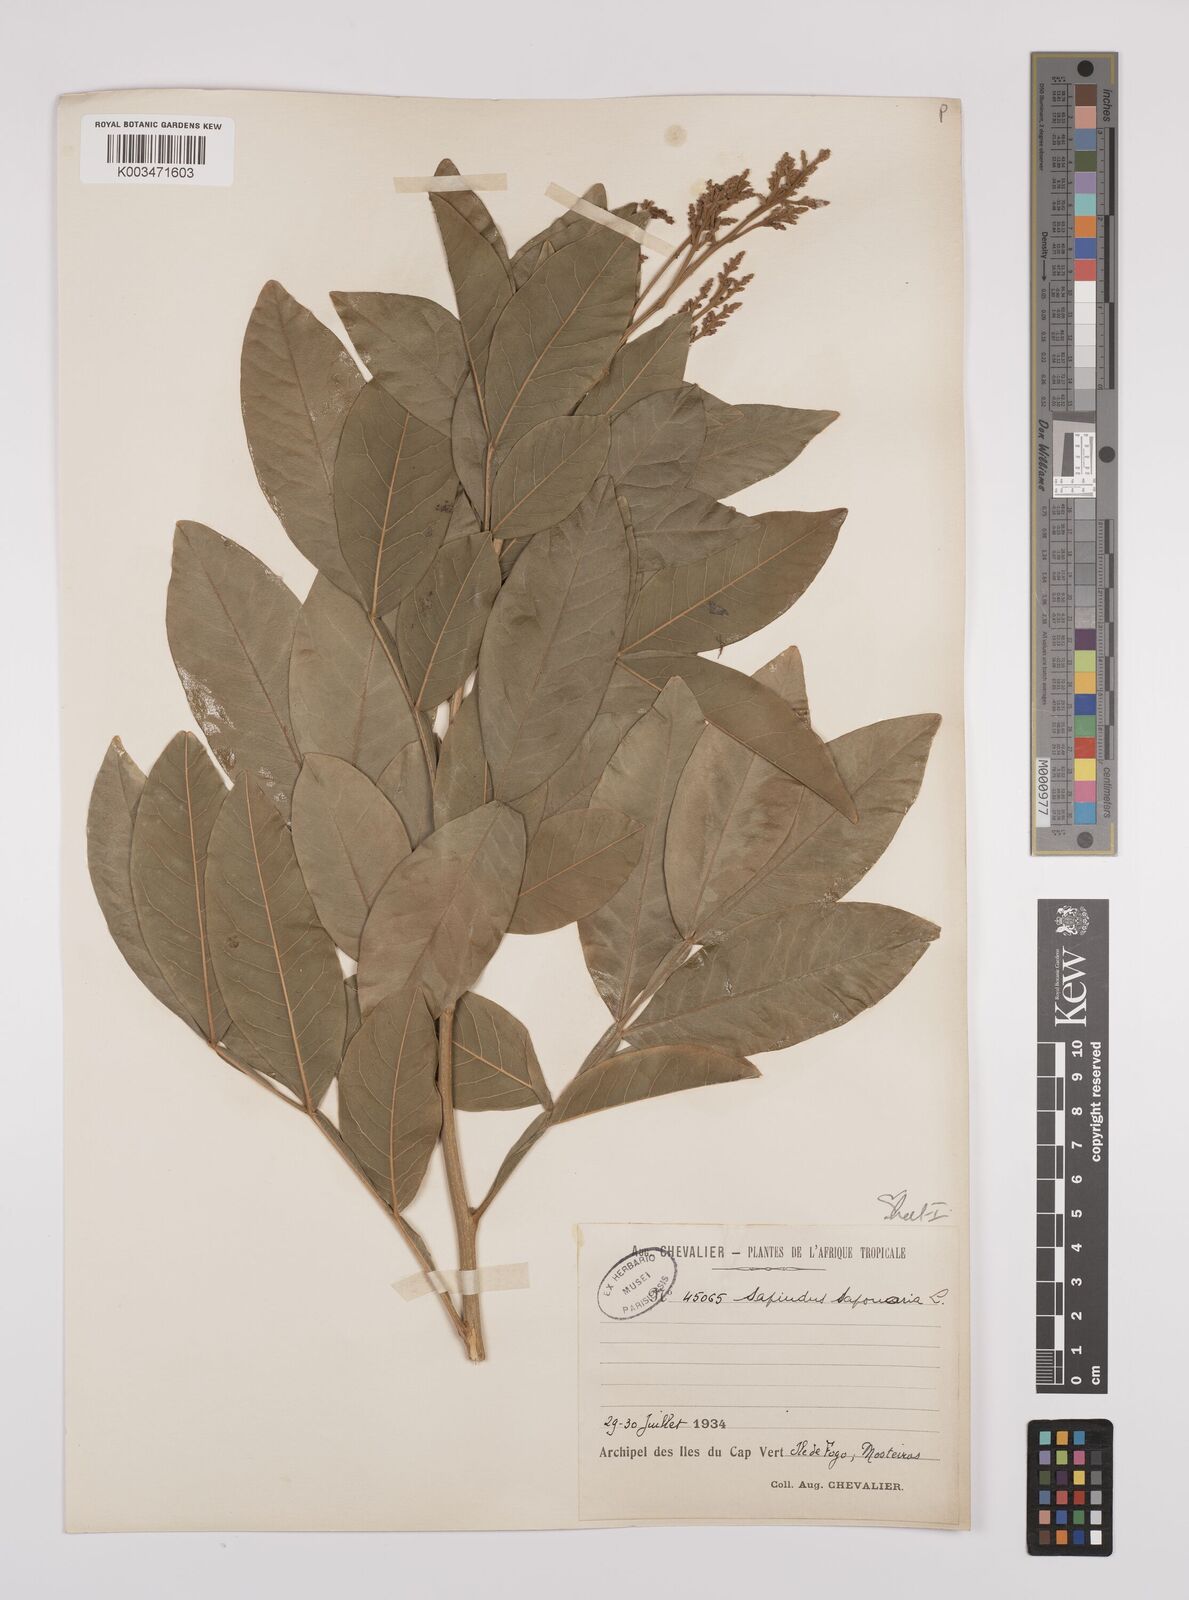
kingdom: Plantae
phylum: Tracheophyta
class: Magnoliopsida
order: Sapindales
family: Sapindaceae
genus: Sapindus
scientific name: Sapindus
